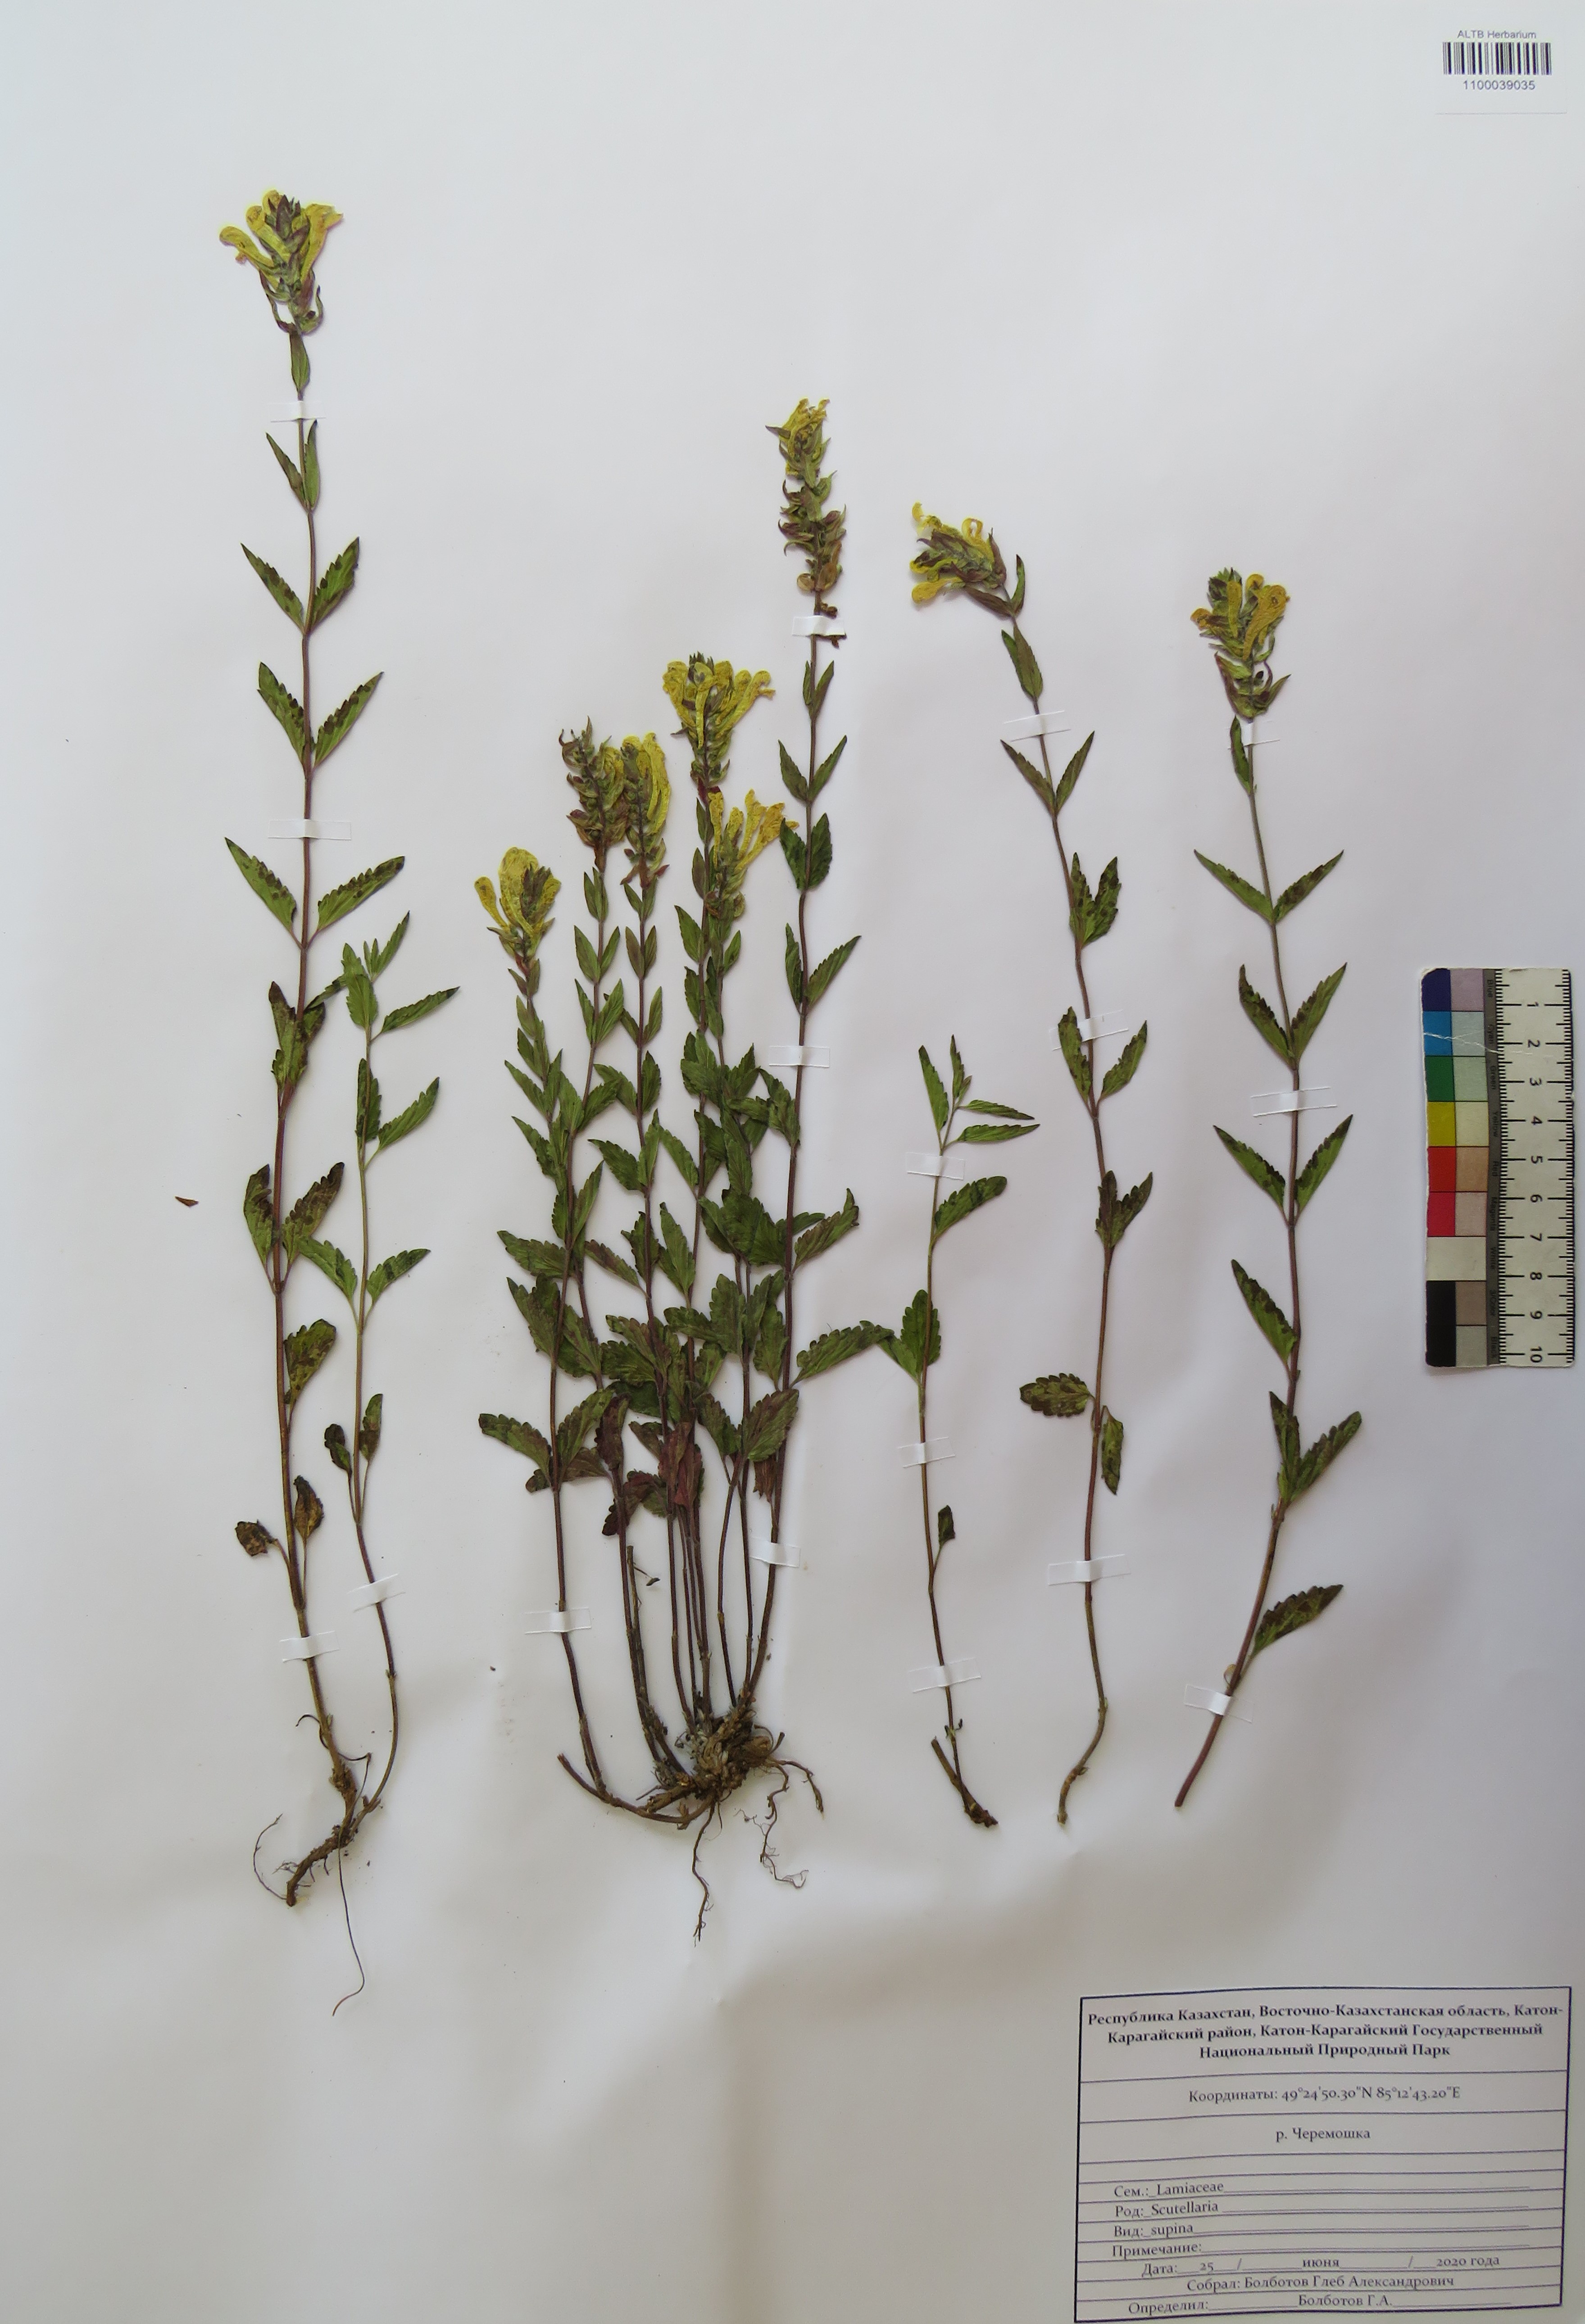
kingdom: Plantae
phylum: Tracheophyta
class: Magnoliopsida
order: Lamiales
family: Lamiaceae
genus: Scutellaria
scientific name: Scutellaria supina
